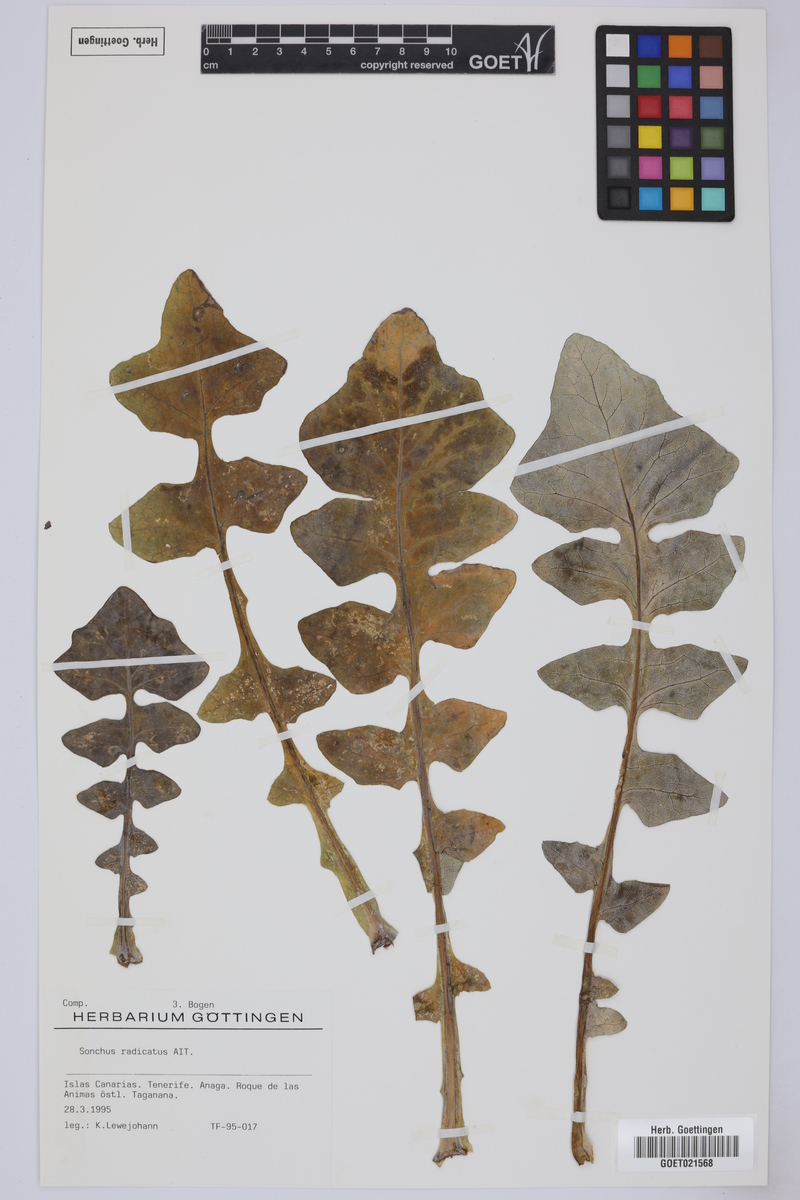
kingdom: Plantae
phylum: Tracheophyta
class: Magnoliopsida
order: Asterales
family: Asteraceae
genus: Sonchus
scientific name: Sonchus radicatus
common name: Long-rooted sow-thistle
